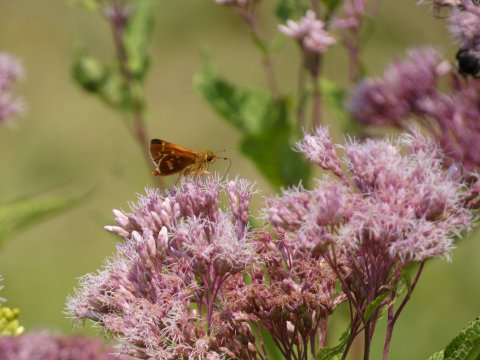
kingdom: Animalia
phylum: Arthropoda
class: Insecta
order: Lepidoptera
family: Hesperiidae
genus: Hesperia
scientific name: Hesperia leonardus
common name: Leonard's Skipper
